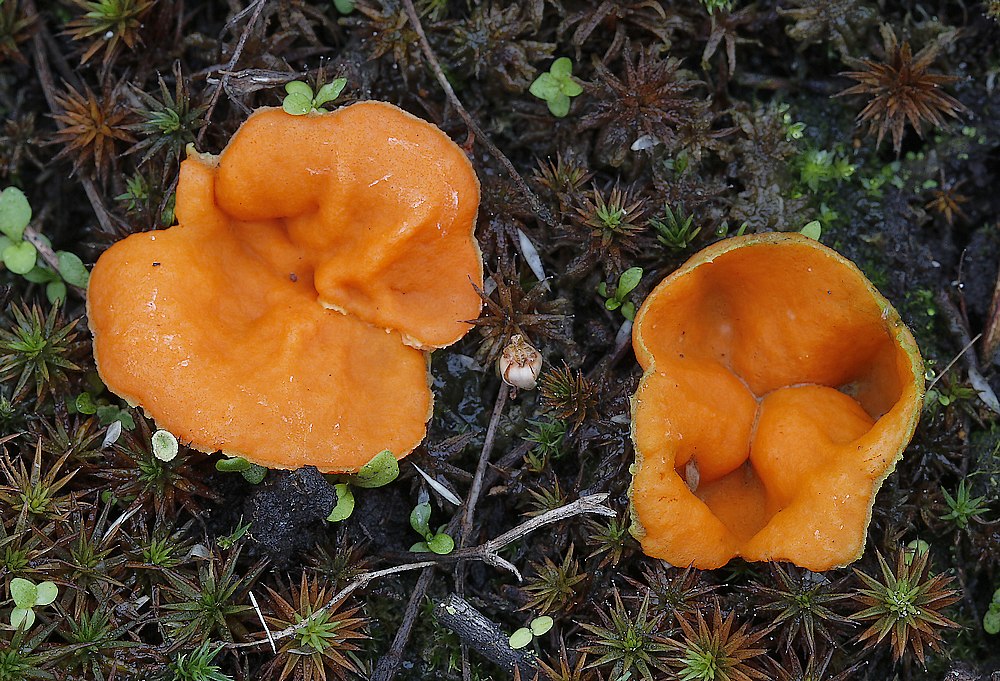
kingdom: Fungi
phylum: Ascomycota
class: Pezizomycetes
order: Pezizales
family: Pyronemataceae
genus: Neottiella
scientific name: Neottiella
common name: mosbæger
